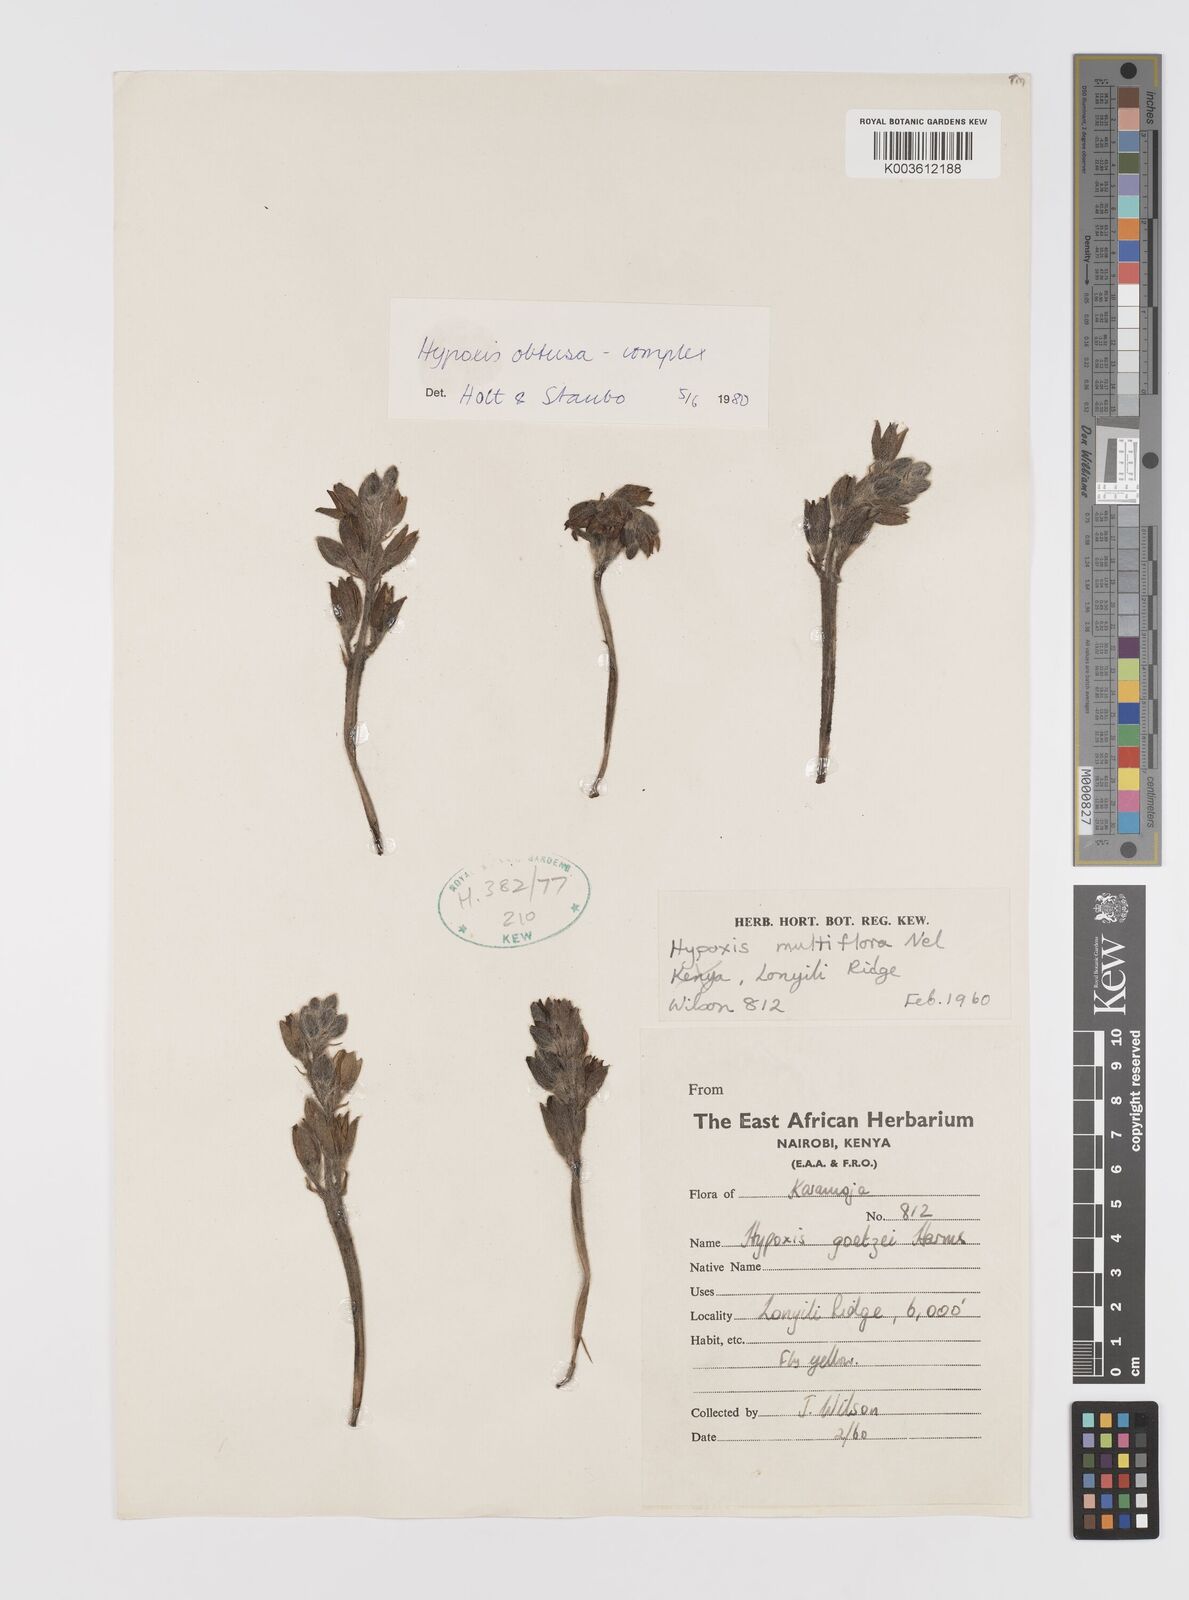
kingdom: Plantae
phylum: Tracheophyta
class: Liliopsida
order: Asparagales
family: Hypoxidaceae
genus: Hypoxis
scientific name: Hypoxis
